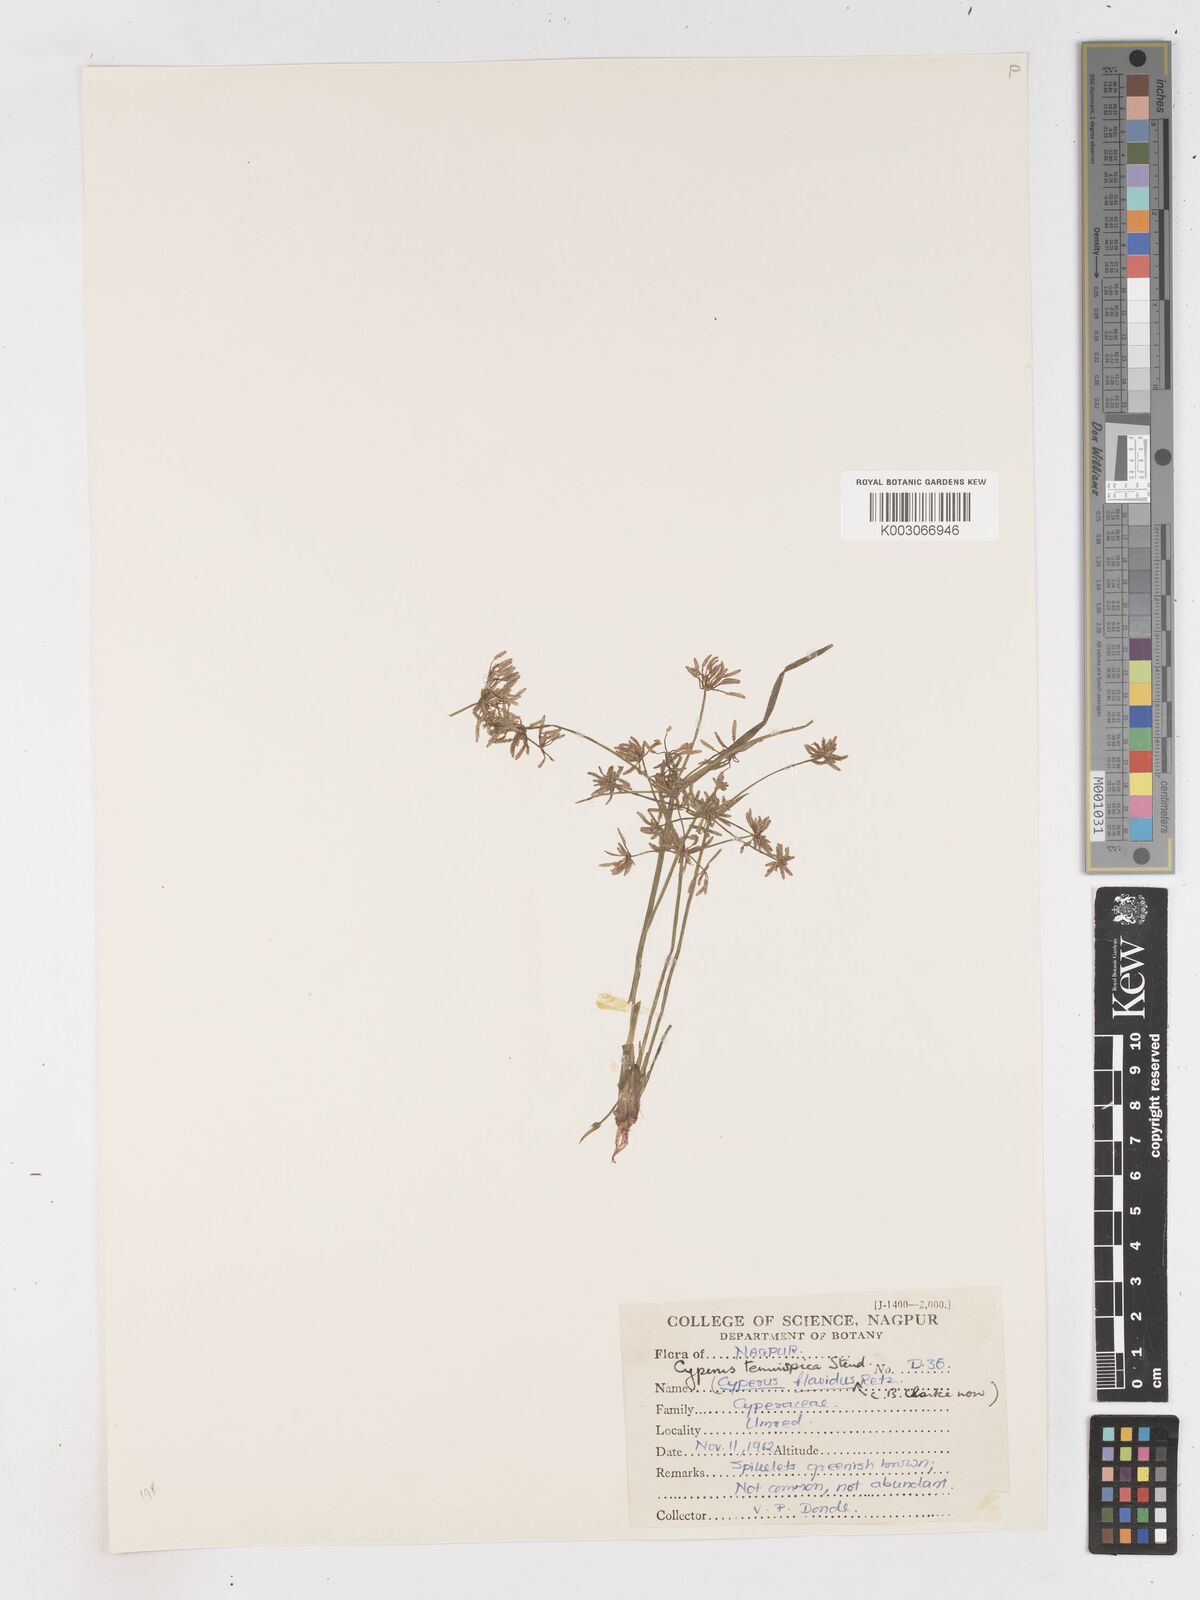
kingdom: Plantae
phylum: Tracheophyta
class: Liliopsida
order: Poales
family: Cyperaceae
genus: Cyperus
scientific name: Cyperus tenuispica
